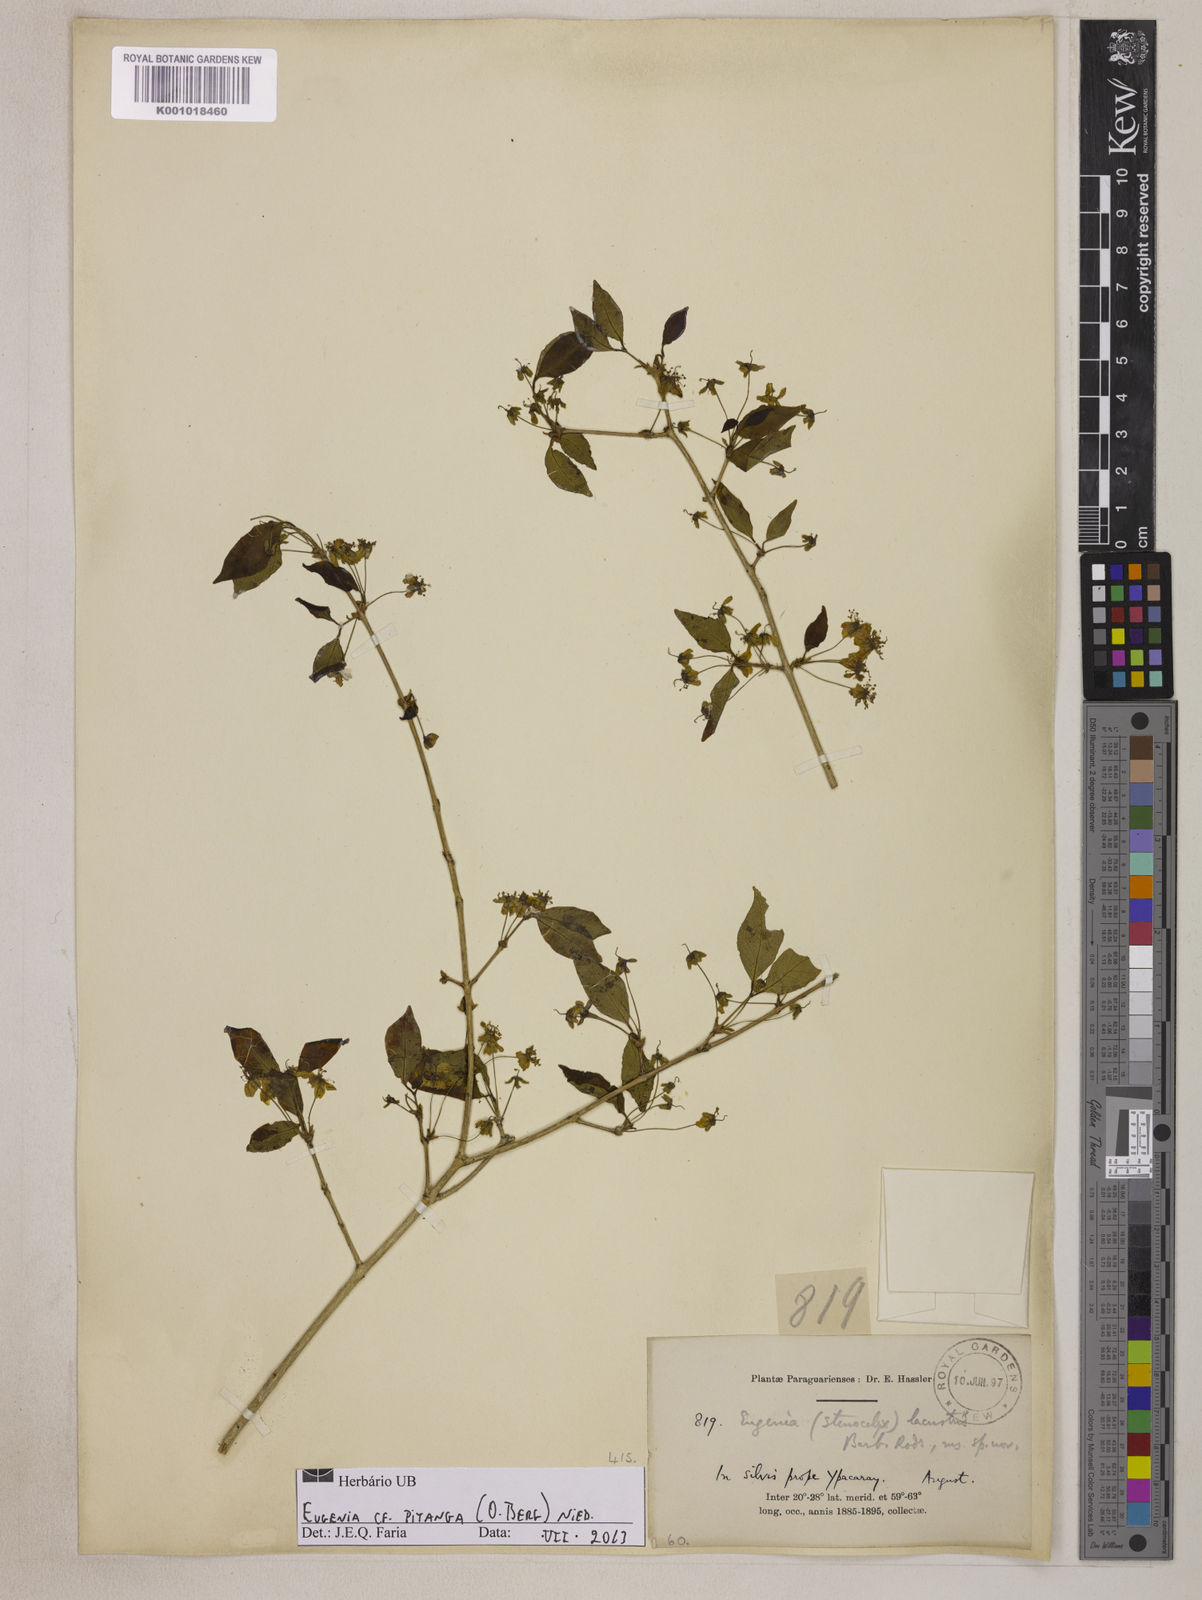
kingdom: Plantae
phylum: Tracheophyta
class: Magnoliopsida
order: Myrtales
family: Myrtaceae
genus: Eugenia
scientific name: Eugenia
